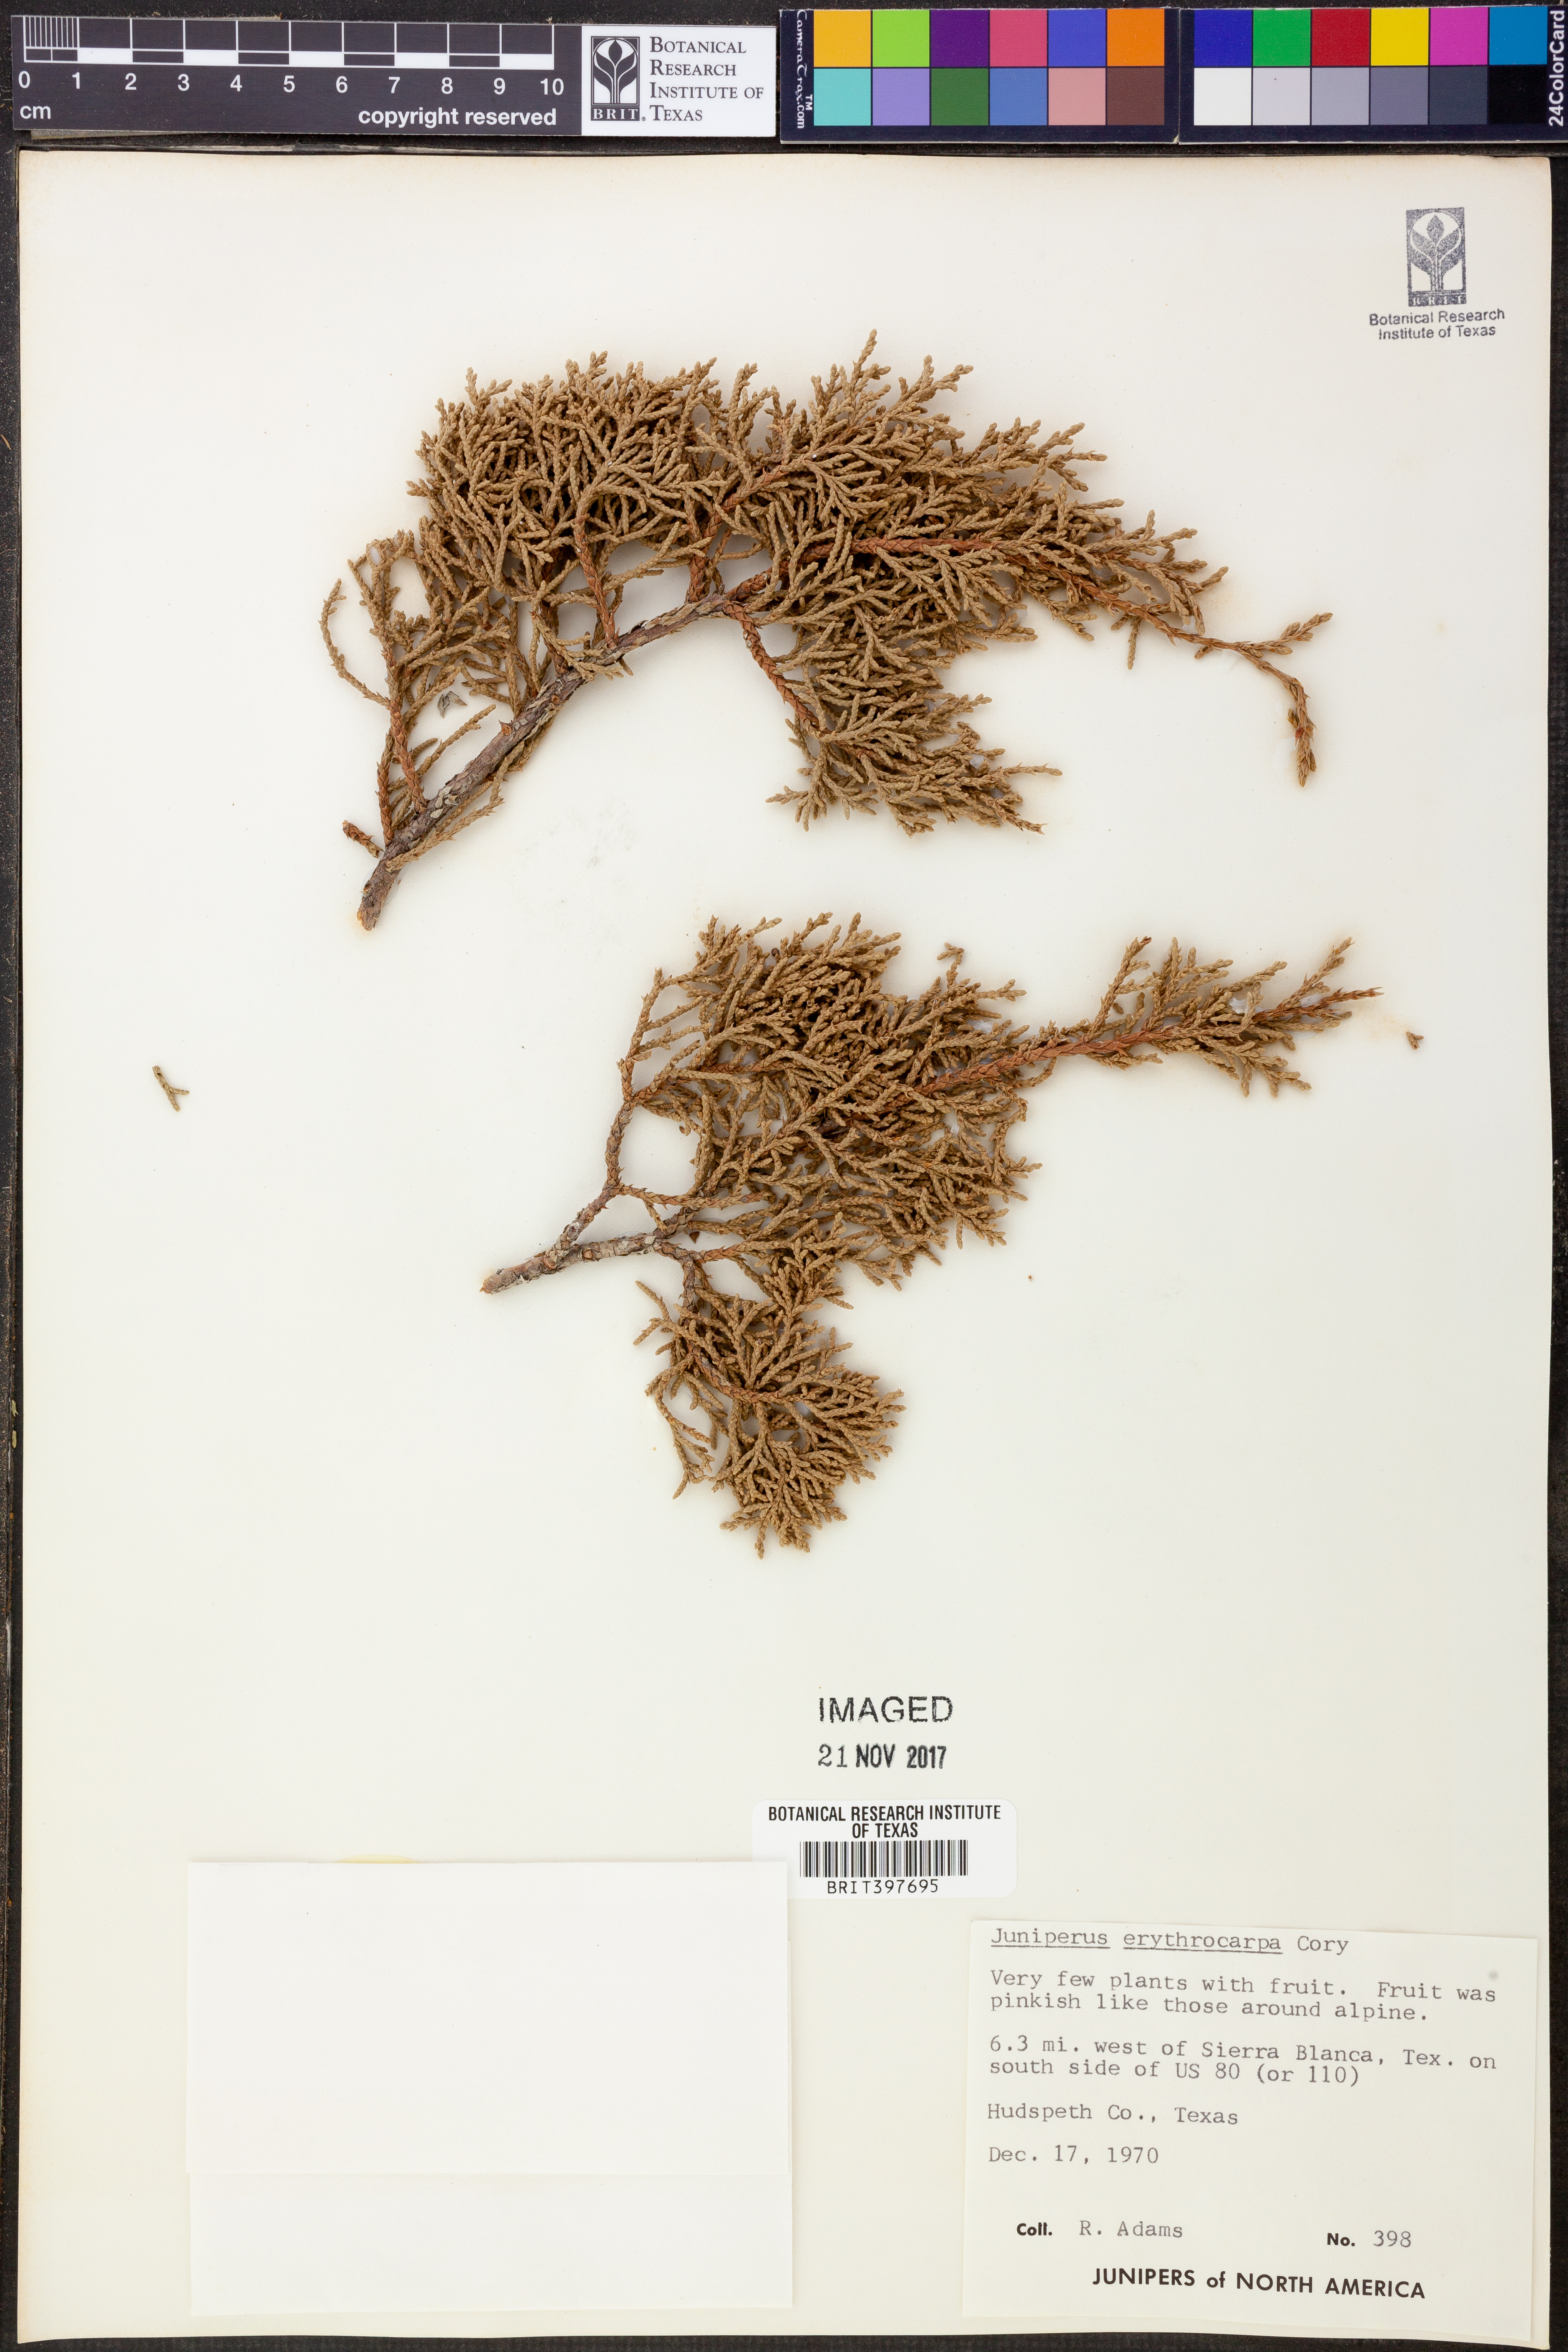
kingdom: Plantae
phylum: Tracheophyta
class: Pinopsida
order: Pinales
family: Cupressaceae
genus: Juniperus
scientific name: Juniperus pinchotii
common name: Pinchot juniper
